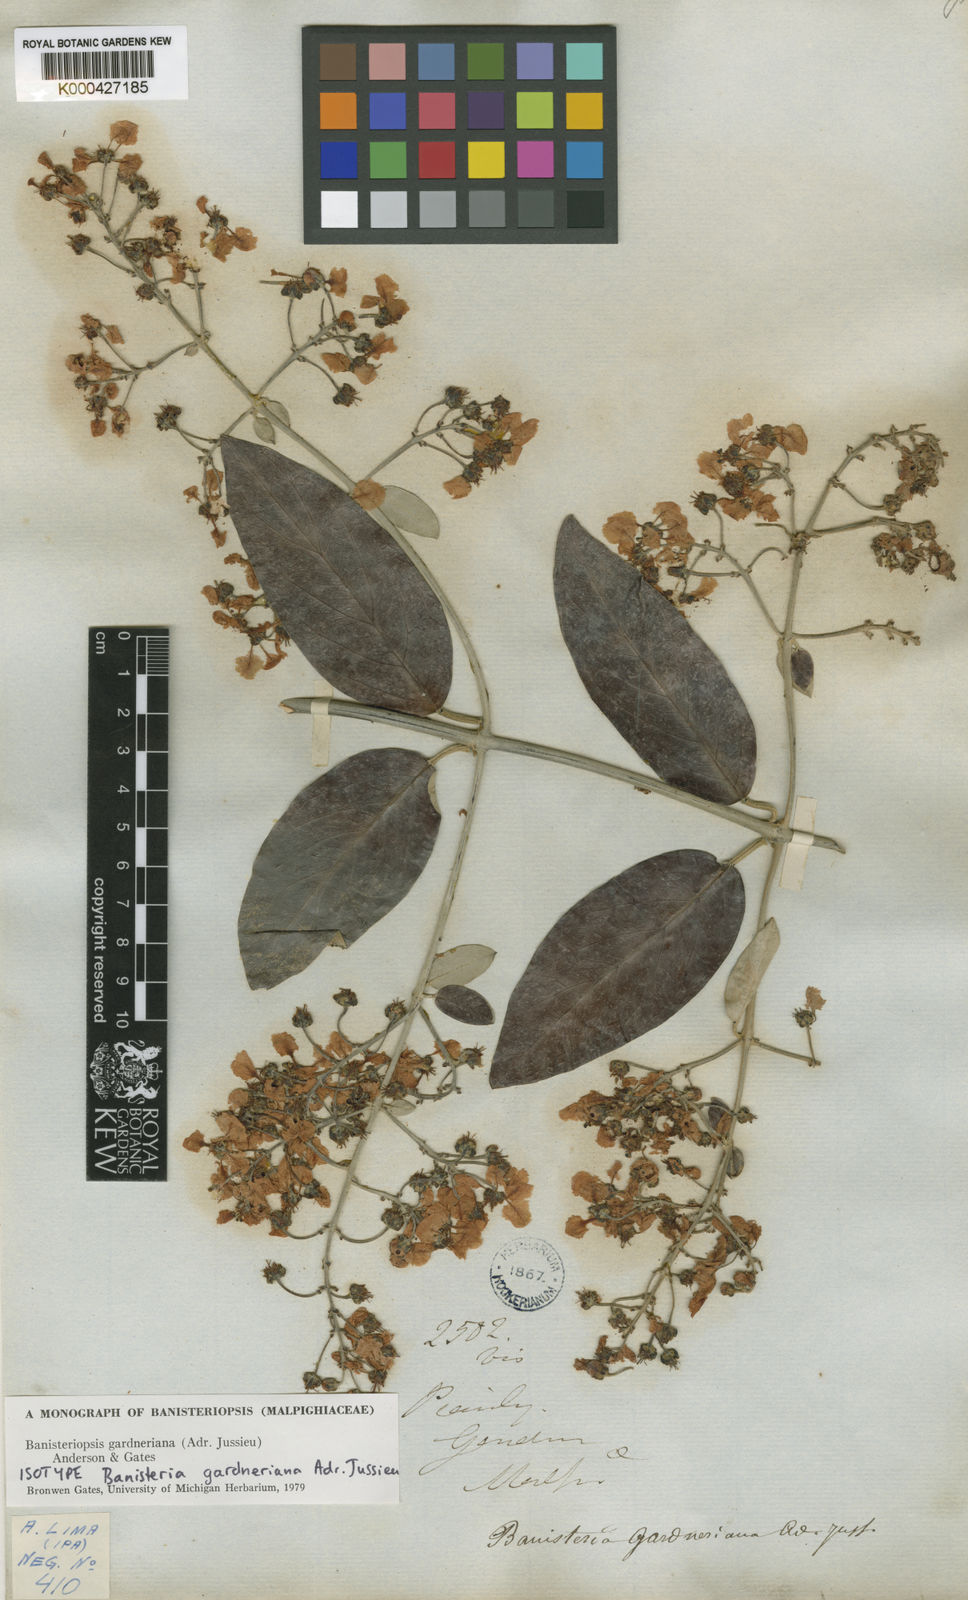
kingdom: Plantae
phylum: Tracheophyta
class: Magnoliopsida
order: Malpighiales
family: Malpighiaceae
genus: Banisteriopsis
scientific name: Banisteriopsis gardneriana
